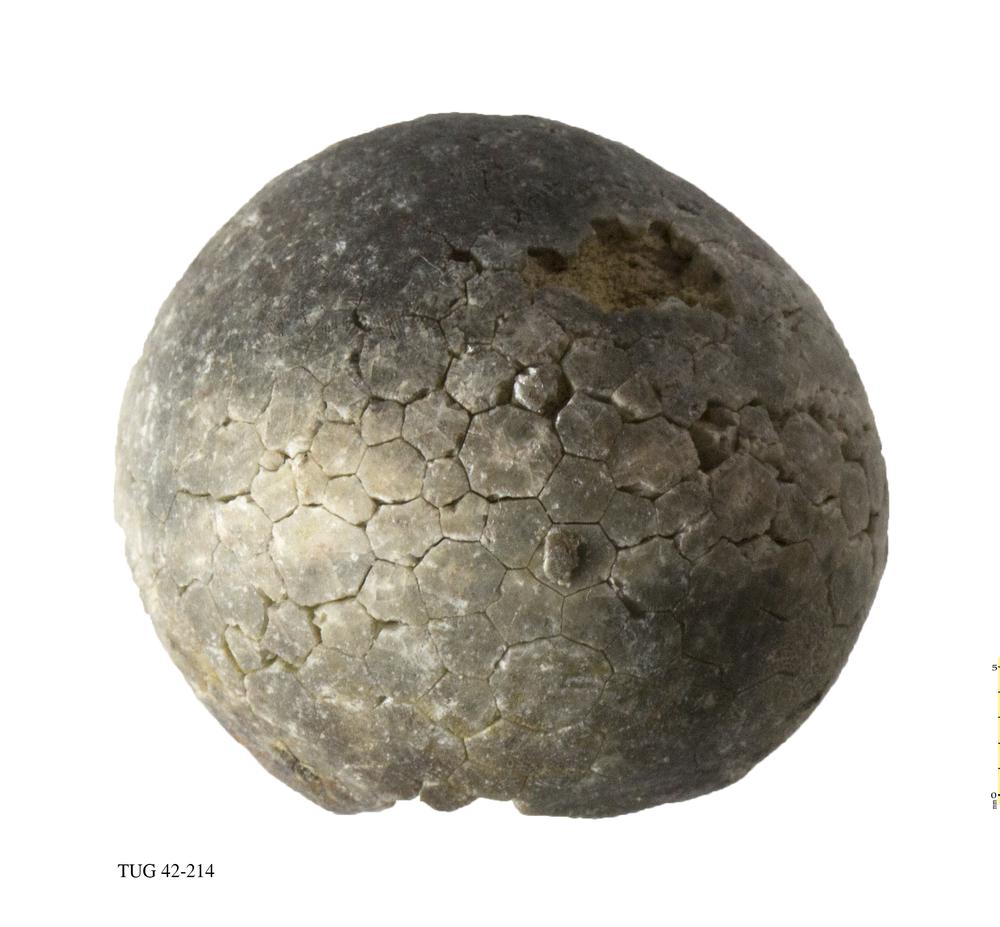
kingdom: Animalia
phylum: Echinodermata
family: Echinosphaeritidae
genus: Echinosphaerites
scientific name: Echinosphaerites Echinus aurantium
